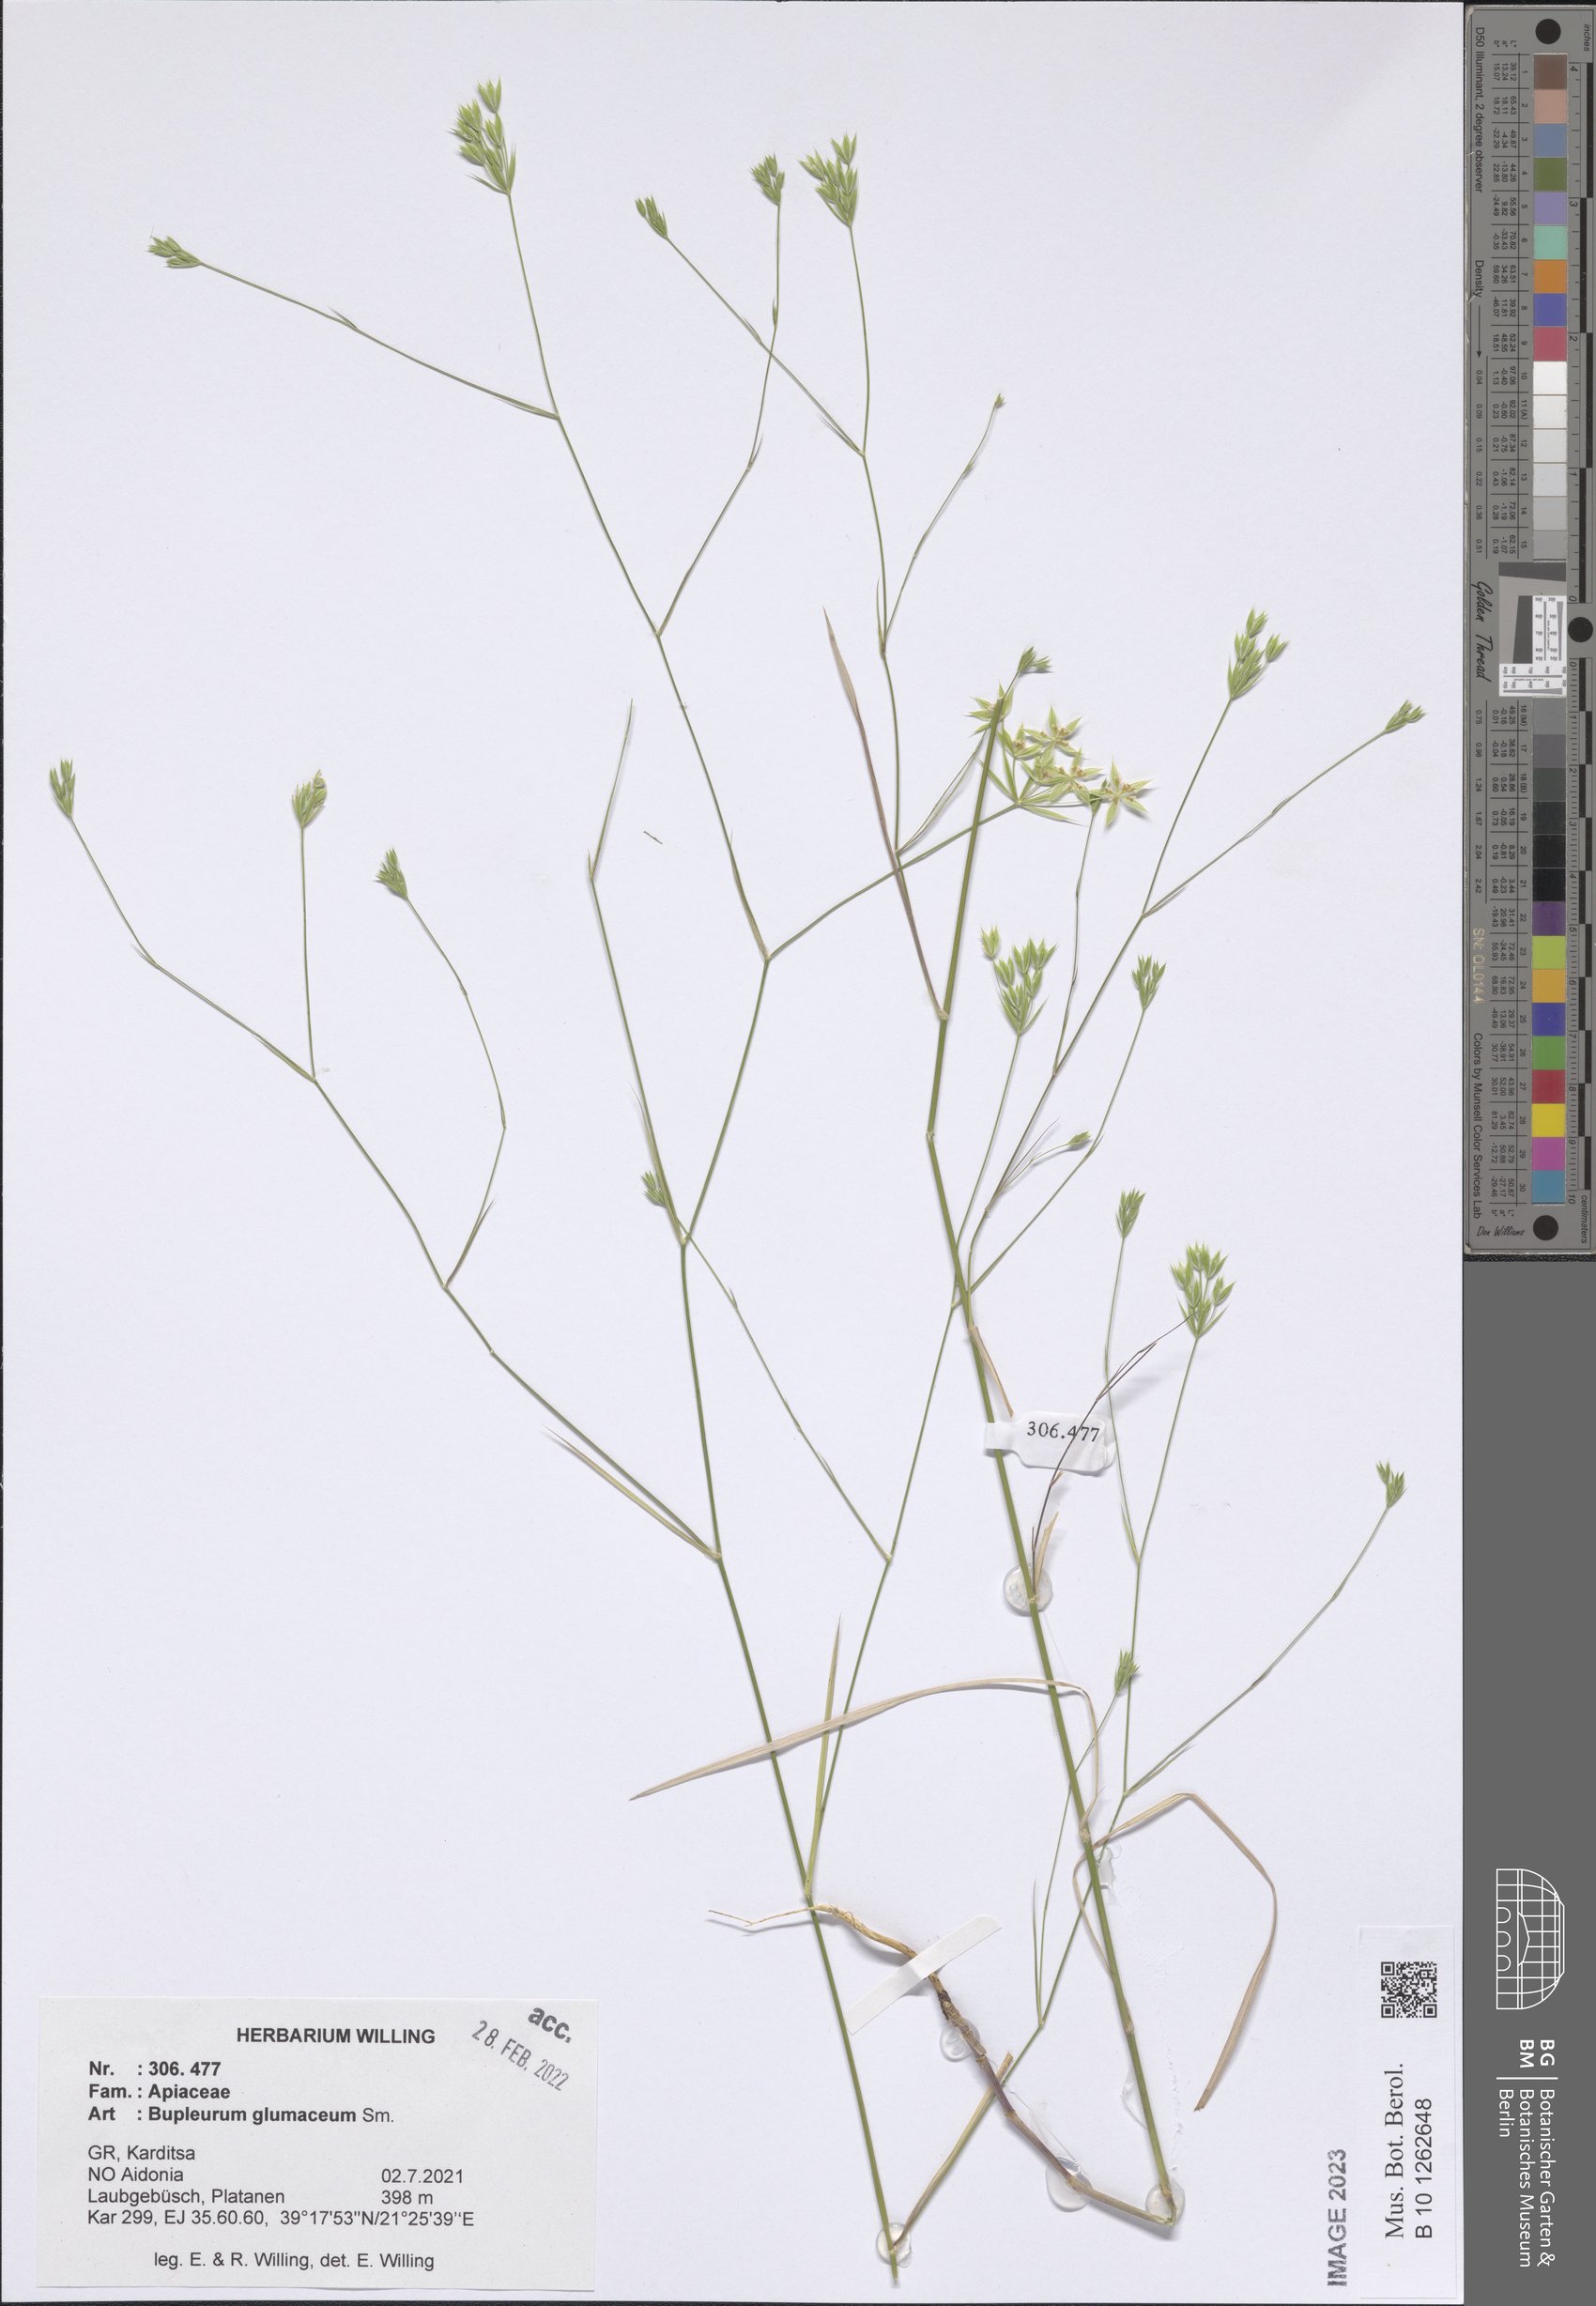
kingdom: Plantae
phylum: Tracheophyta
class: Magnoliopsida
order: Apiales
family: Apiaceae
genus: Bupleurum
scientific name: Bupleurum glumaceum
